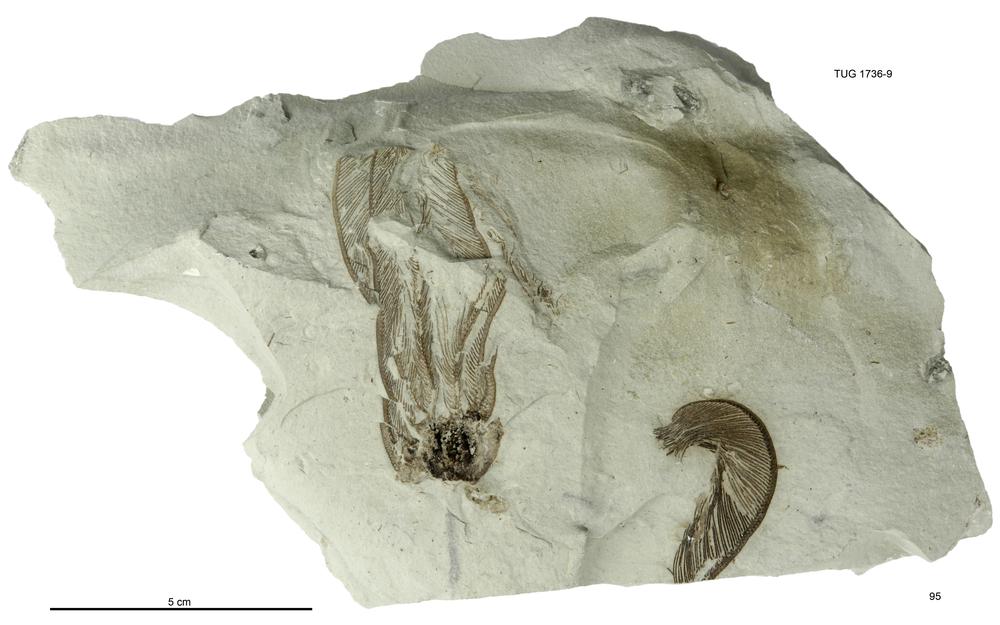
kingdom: Animalia
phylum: Echinodermata
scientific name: Echinodermata
